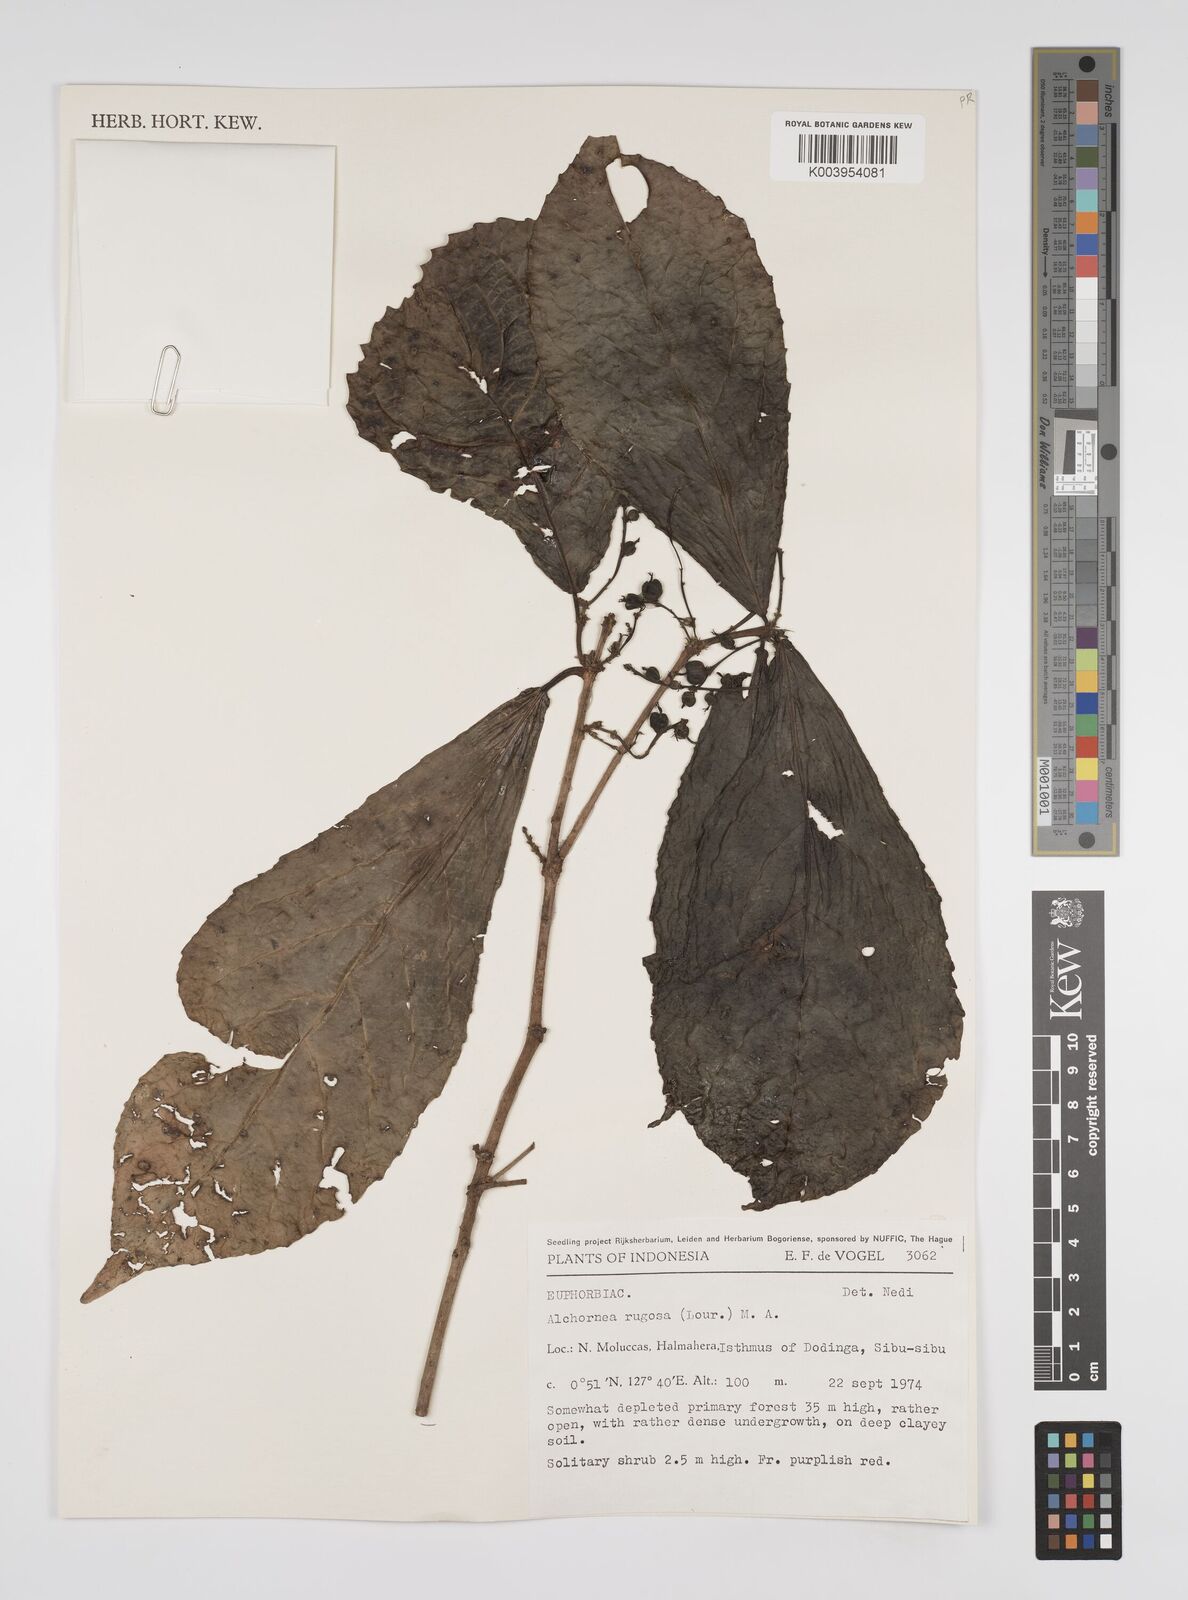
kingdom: Plantae
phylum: Tracheophyta
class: Magnoliopsida
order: Malpighiales
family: Euphorbiaceae
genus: Alchornea
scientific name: Alchornea rugosa
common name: Alchorntree
